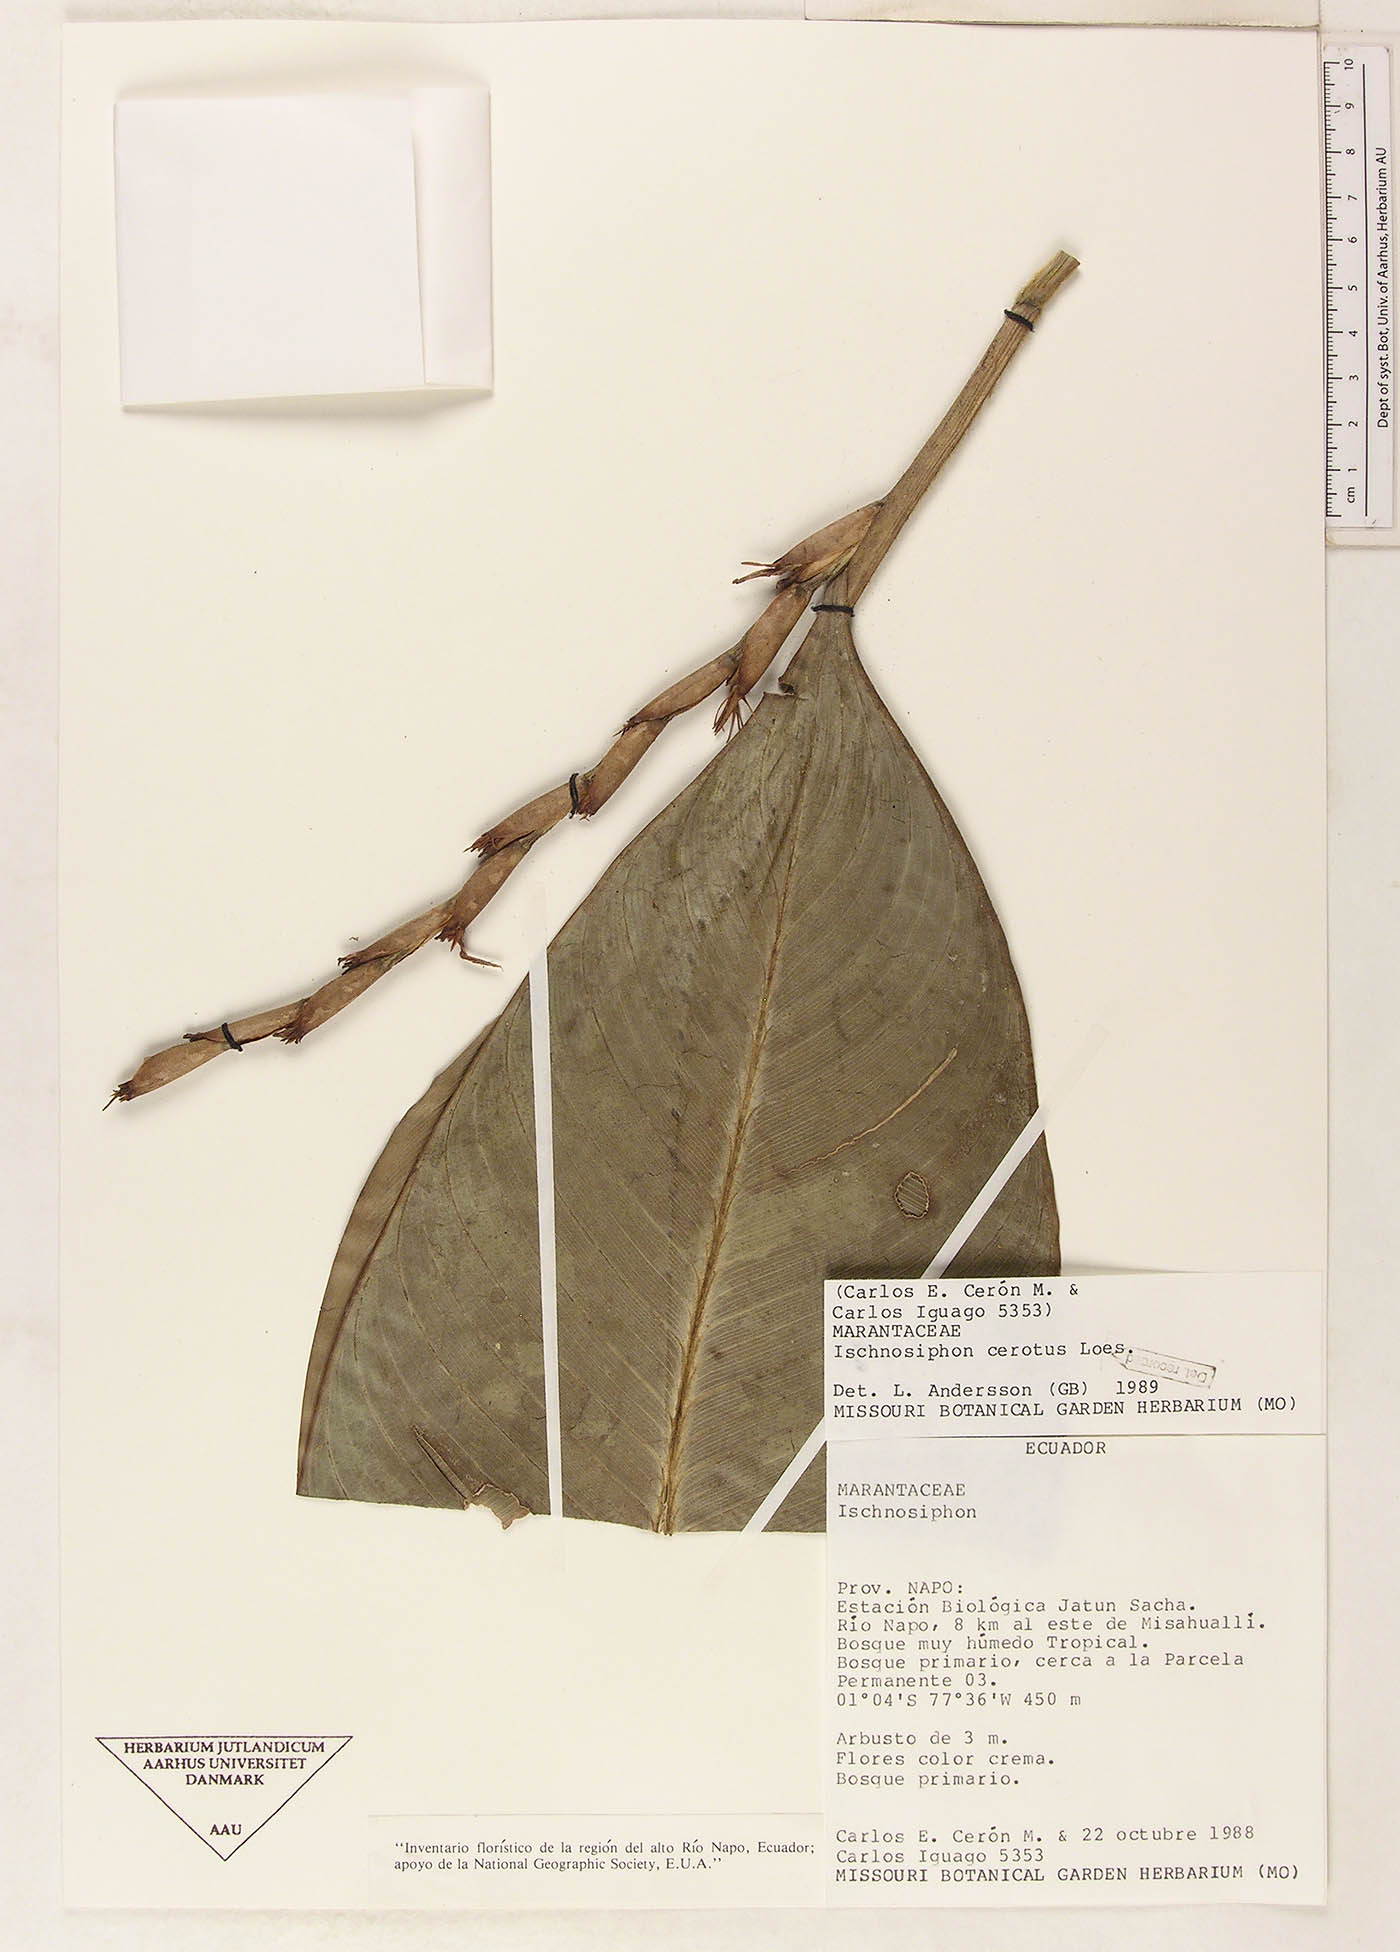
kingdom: Plantae
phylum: Tracheophyta
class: Liliopsida
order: Zingiberales
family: Marantaceae
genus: Ischnosiphon
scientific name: Ischnosiphon cerotus
